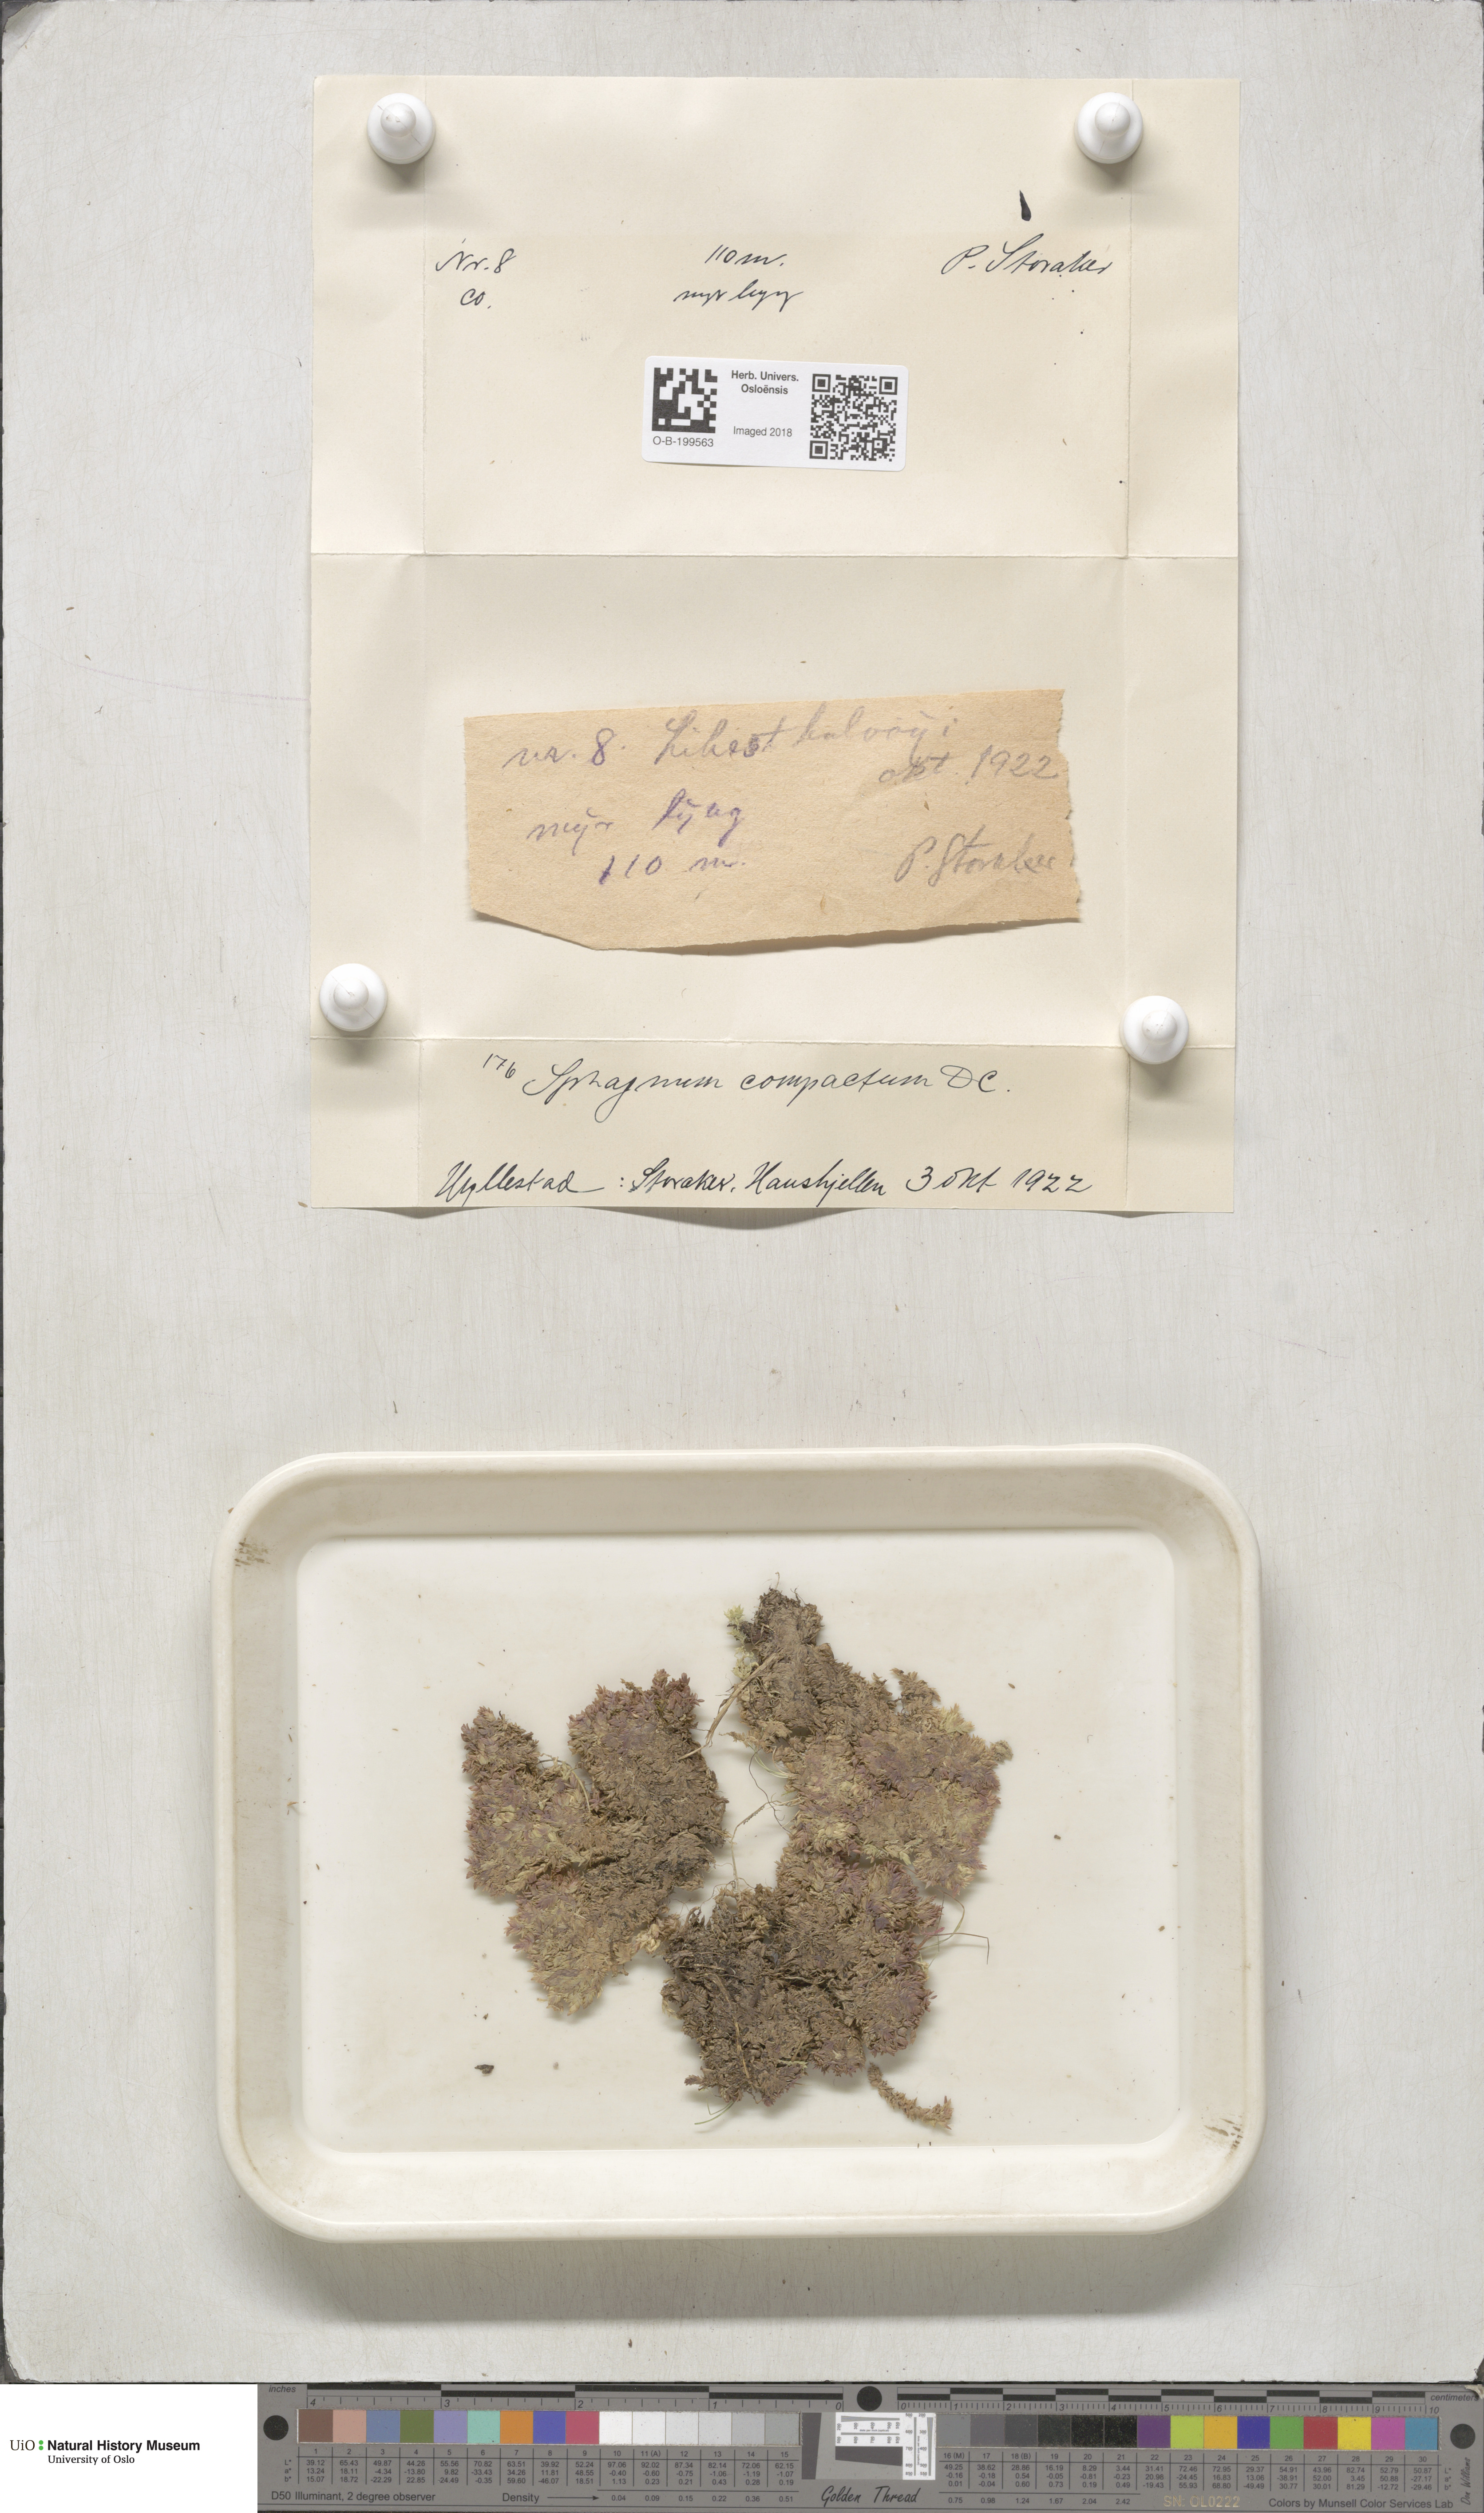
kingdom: Plantae
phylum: Bryophyta
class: Sphagnopsida
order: Sphagnales
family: Sphagnaceae
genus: Sphagnum
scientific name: Sphagnum compactum
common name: Compact peat moss
